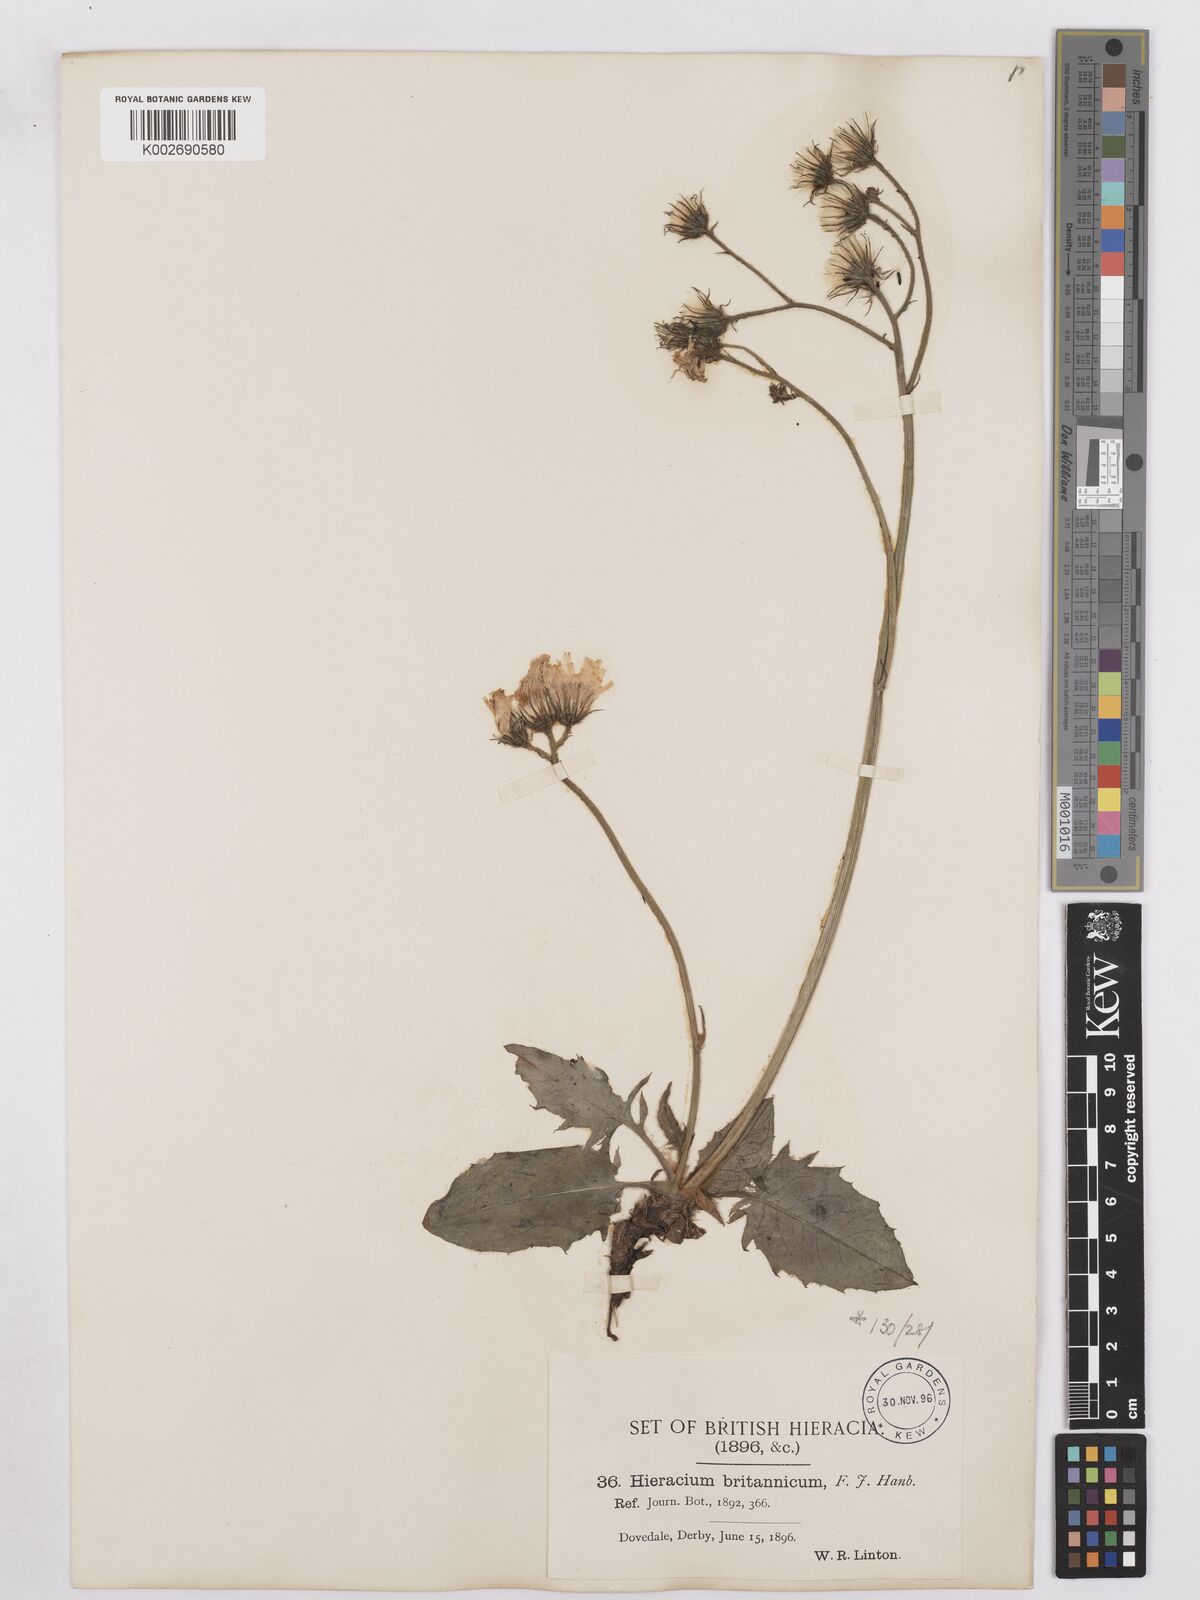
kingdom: Plantae
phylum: Tracheophyta
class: Magnoliopsida
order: Asterales
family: Asteraceae
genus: Hieracium
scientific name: Hieracium britannicum
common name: British hawkweed
